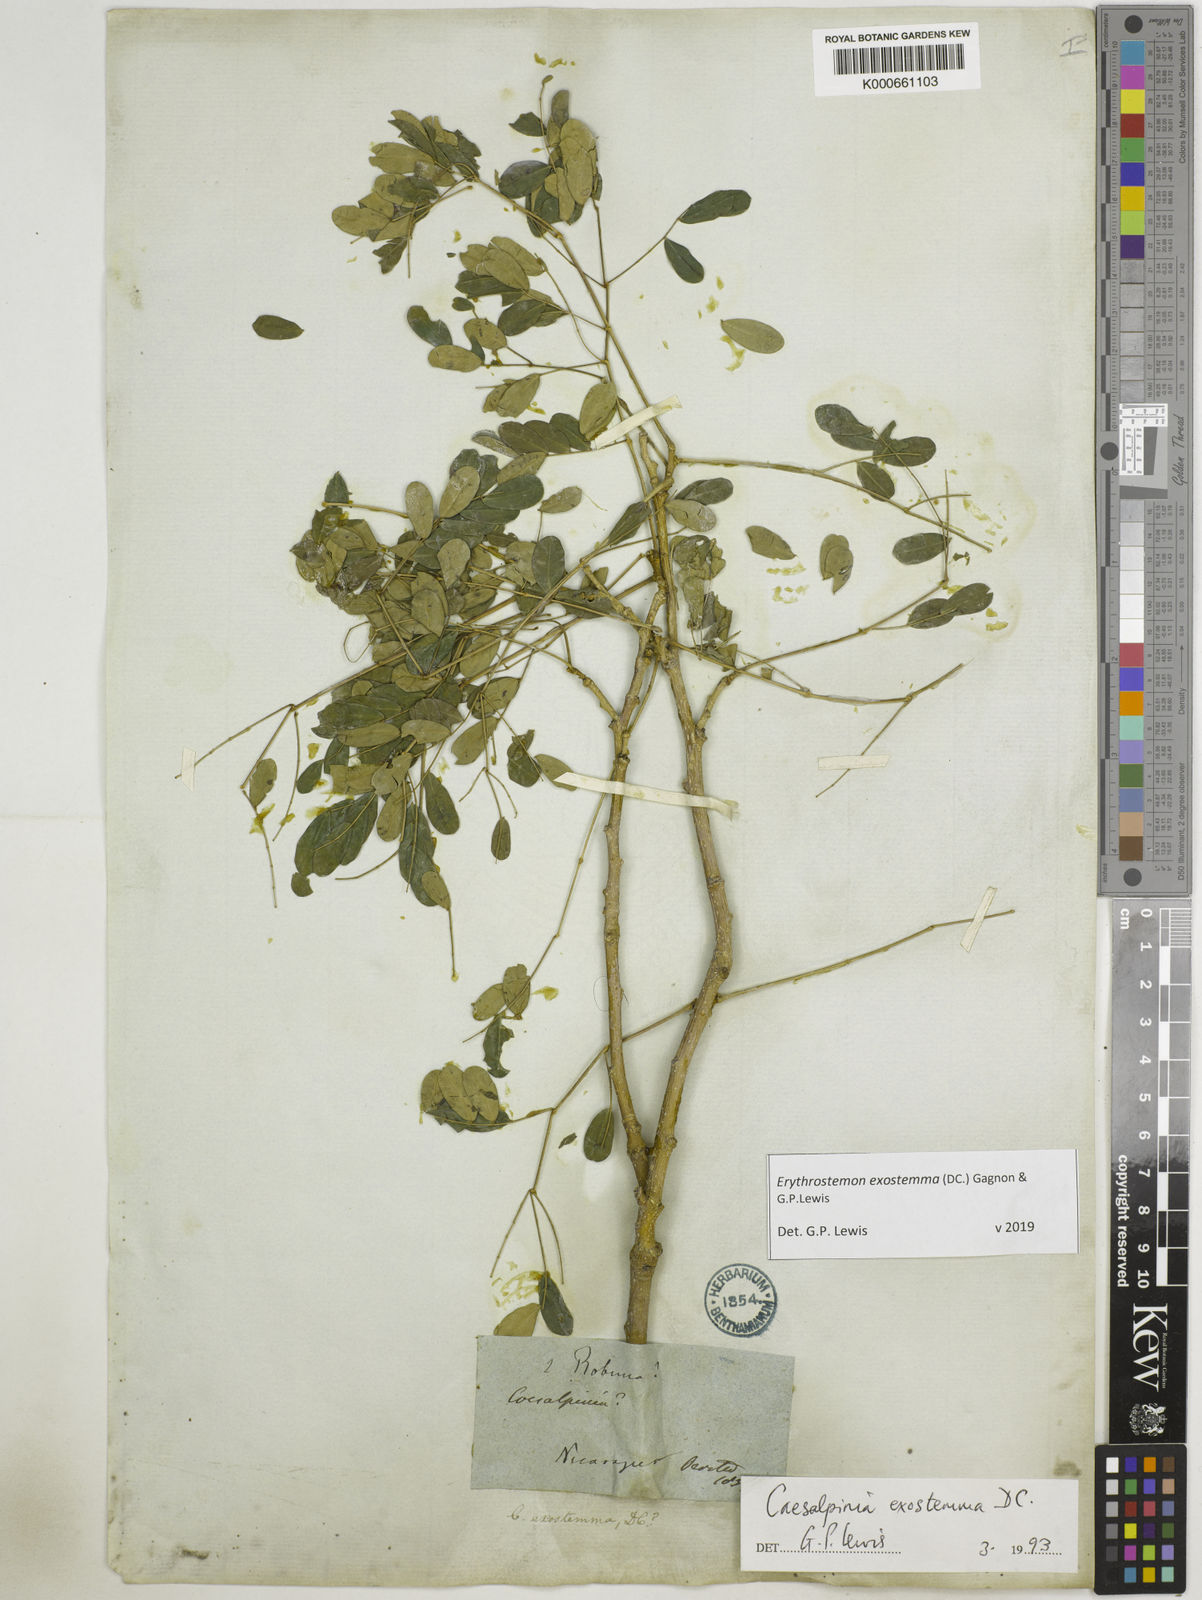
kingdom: Plantae
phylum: Tracheophyta
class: Magnoliopsida
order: Fabales
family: Fabaceae
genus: Erythrostemon
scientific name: Erythrostemon exostemma
